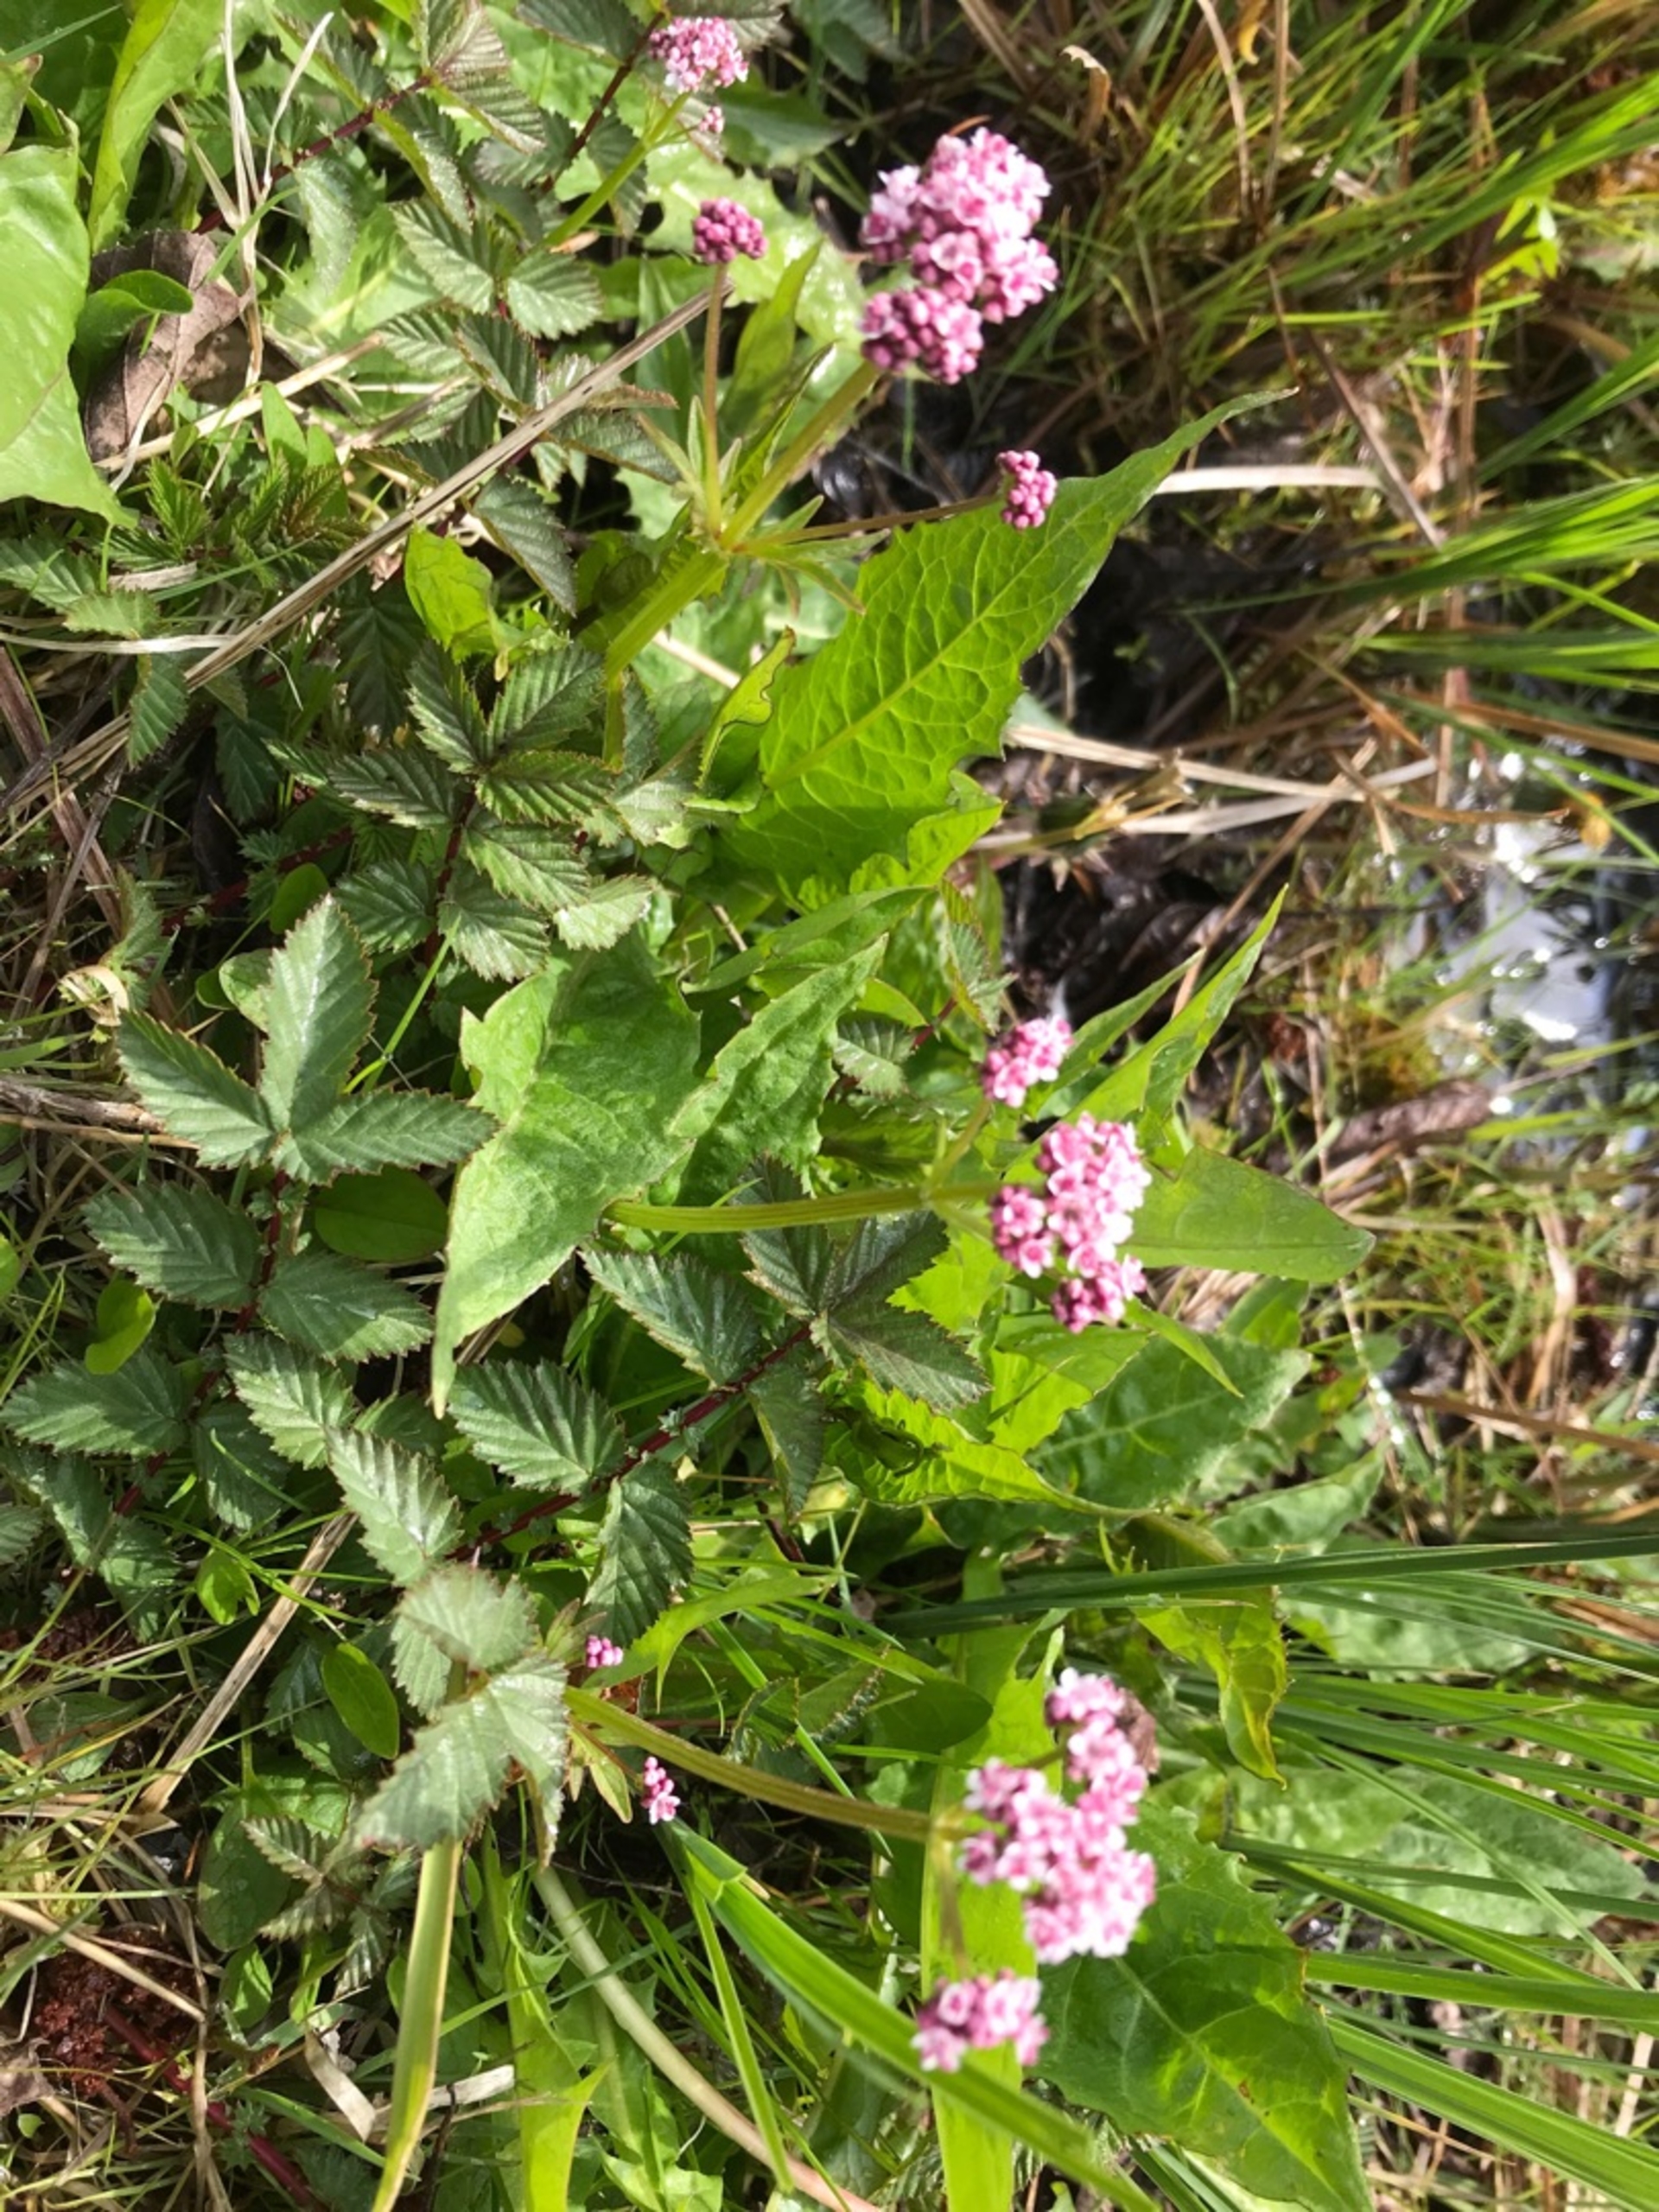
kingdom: Plantae
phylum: Tracheophyta
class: Magnoliopsida
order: Dipsacales
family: Caprifoliaceae
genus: Valeriana
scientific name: Valeriana dioica
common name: Tvebo baldrian
